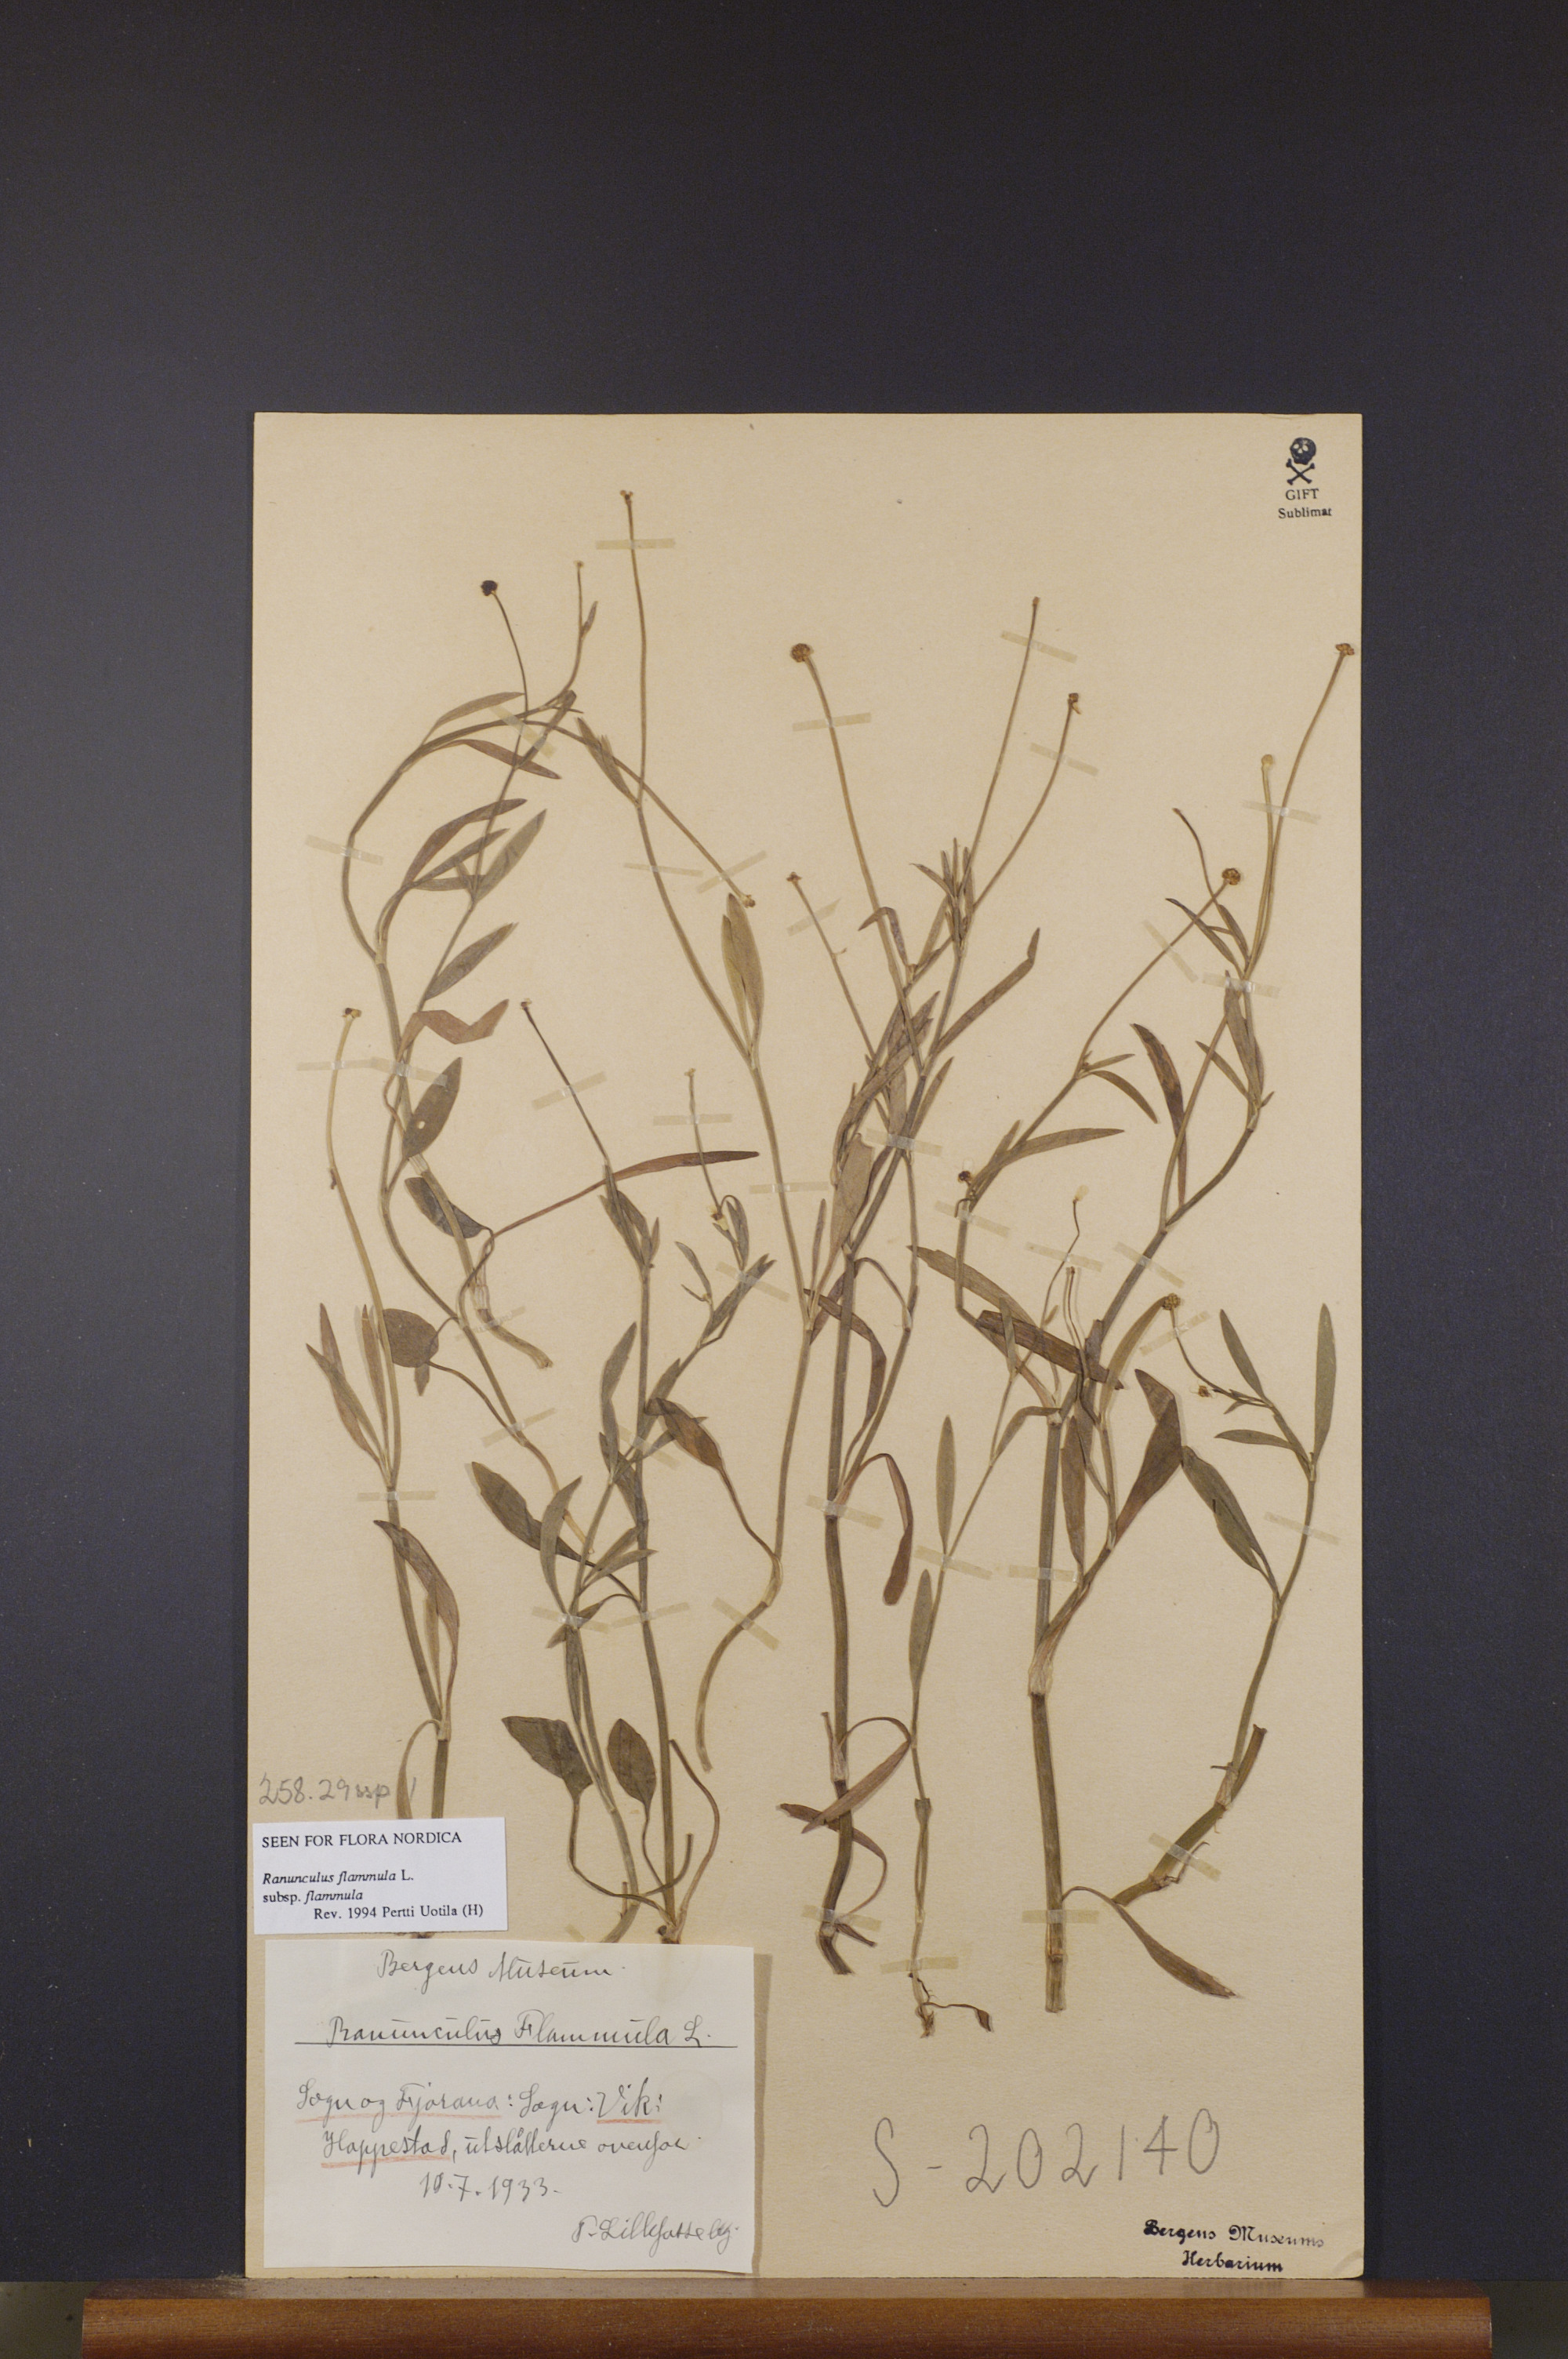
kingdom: Plantae
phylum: Tracheophyta
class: Magnoliopsida
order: Ranunculales
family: Ranunculaceae
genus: Ranunculus
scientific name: Ranunculus flammula
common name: Lesser spearwort
